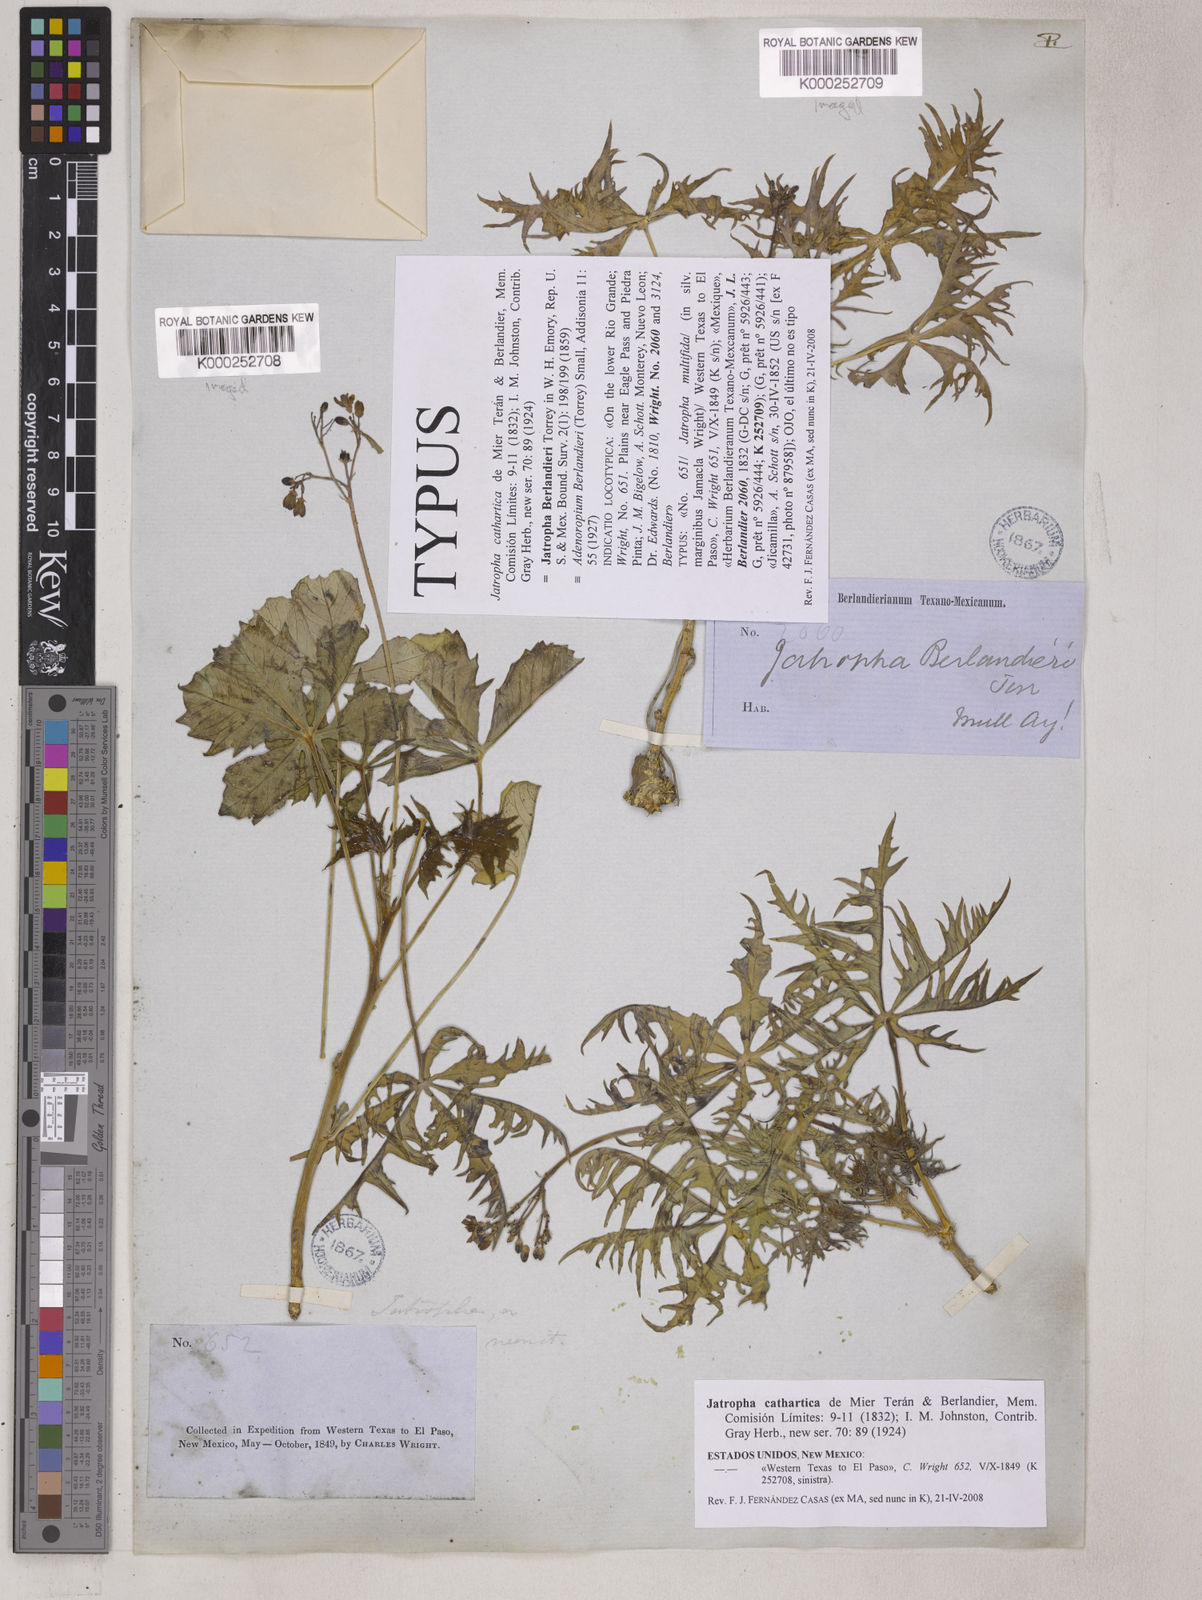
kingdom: Plantae
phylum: Tracheophyta
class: Magnoliopsida
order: Malpighiales
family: Euphorbiaceae
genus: Jatropha
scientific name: Jatropha cathartica
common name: Berlander's nettlespurge
